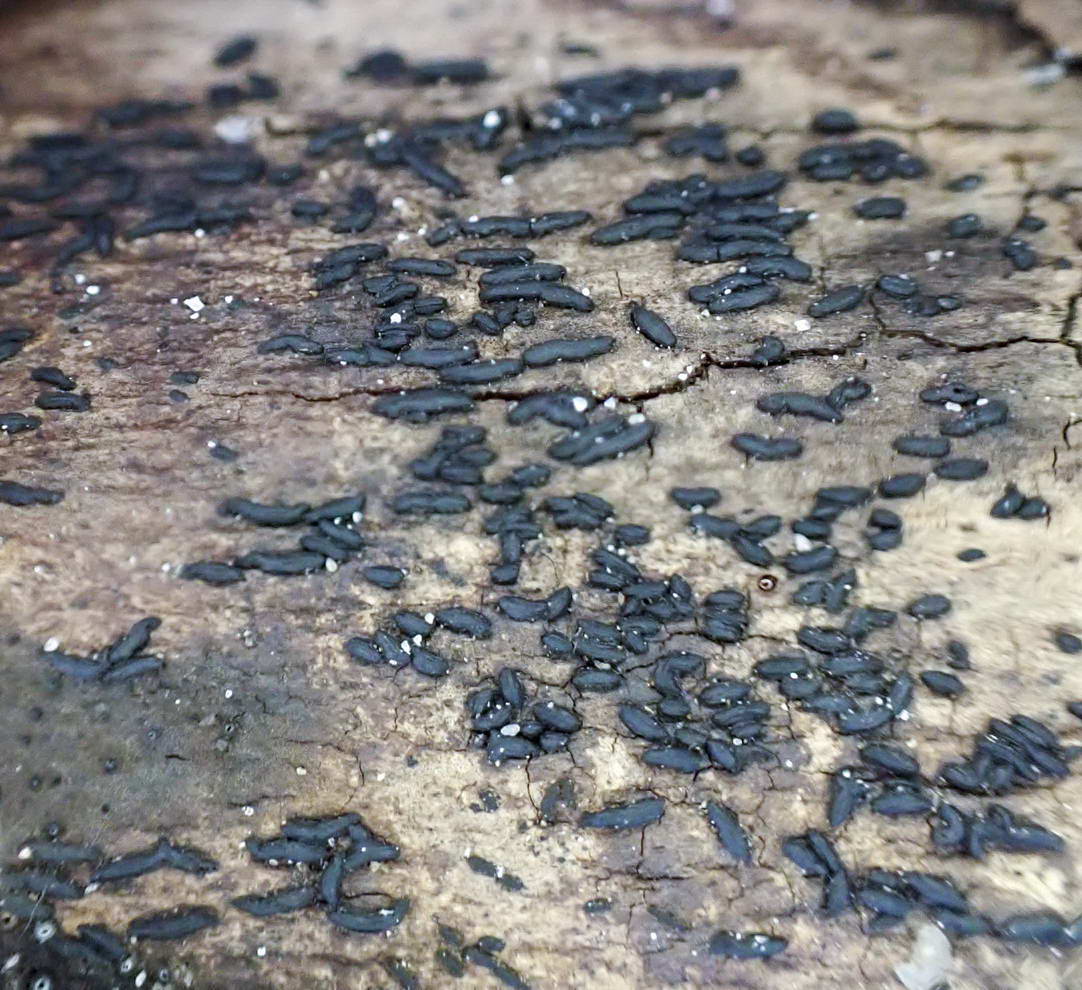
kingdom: Fungi
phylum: Ascomycota
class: Dothideomycetes
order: Hysteriales
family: Hysteriaceae
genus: Hysterium
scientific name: Hysterium acuminatum
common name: almindelig kulmund
